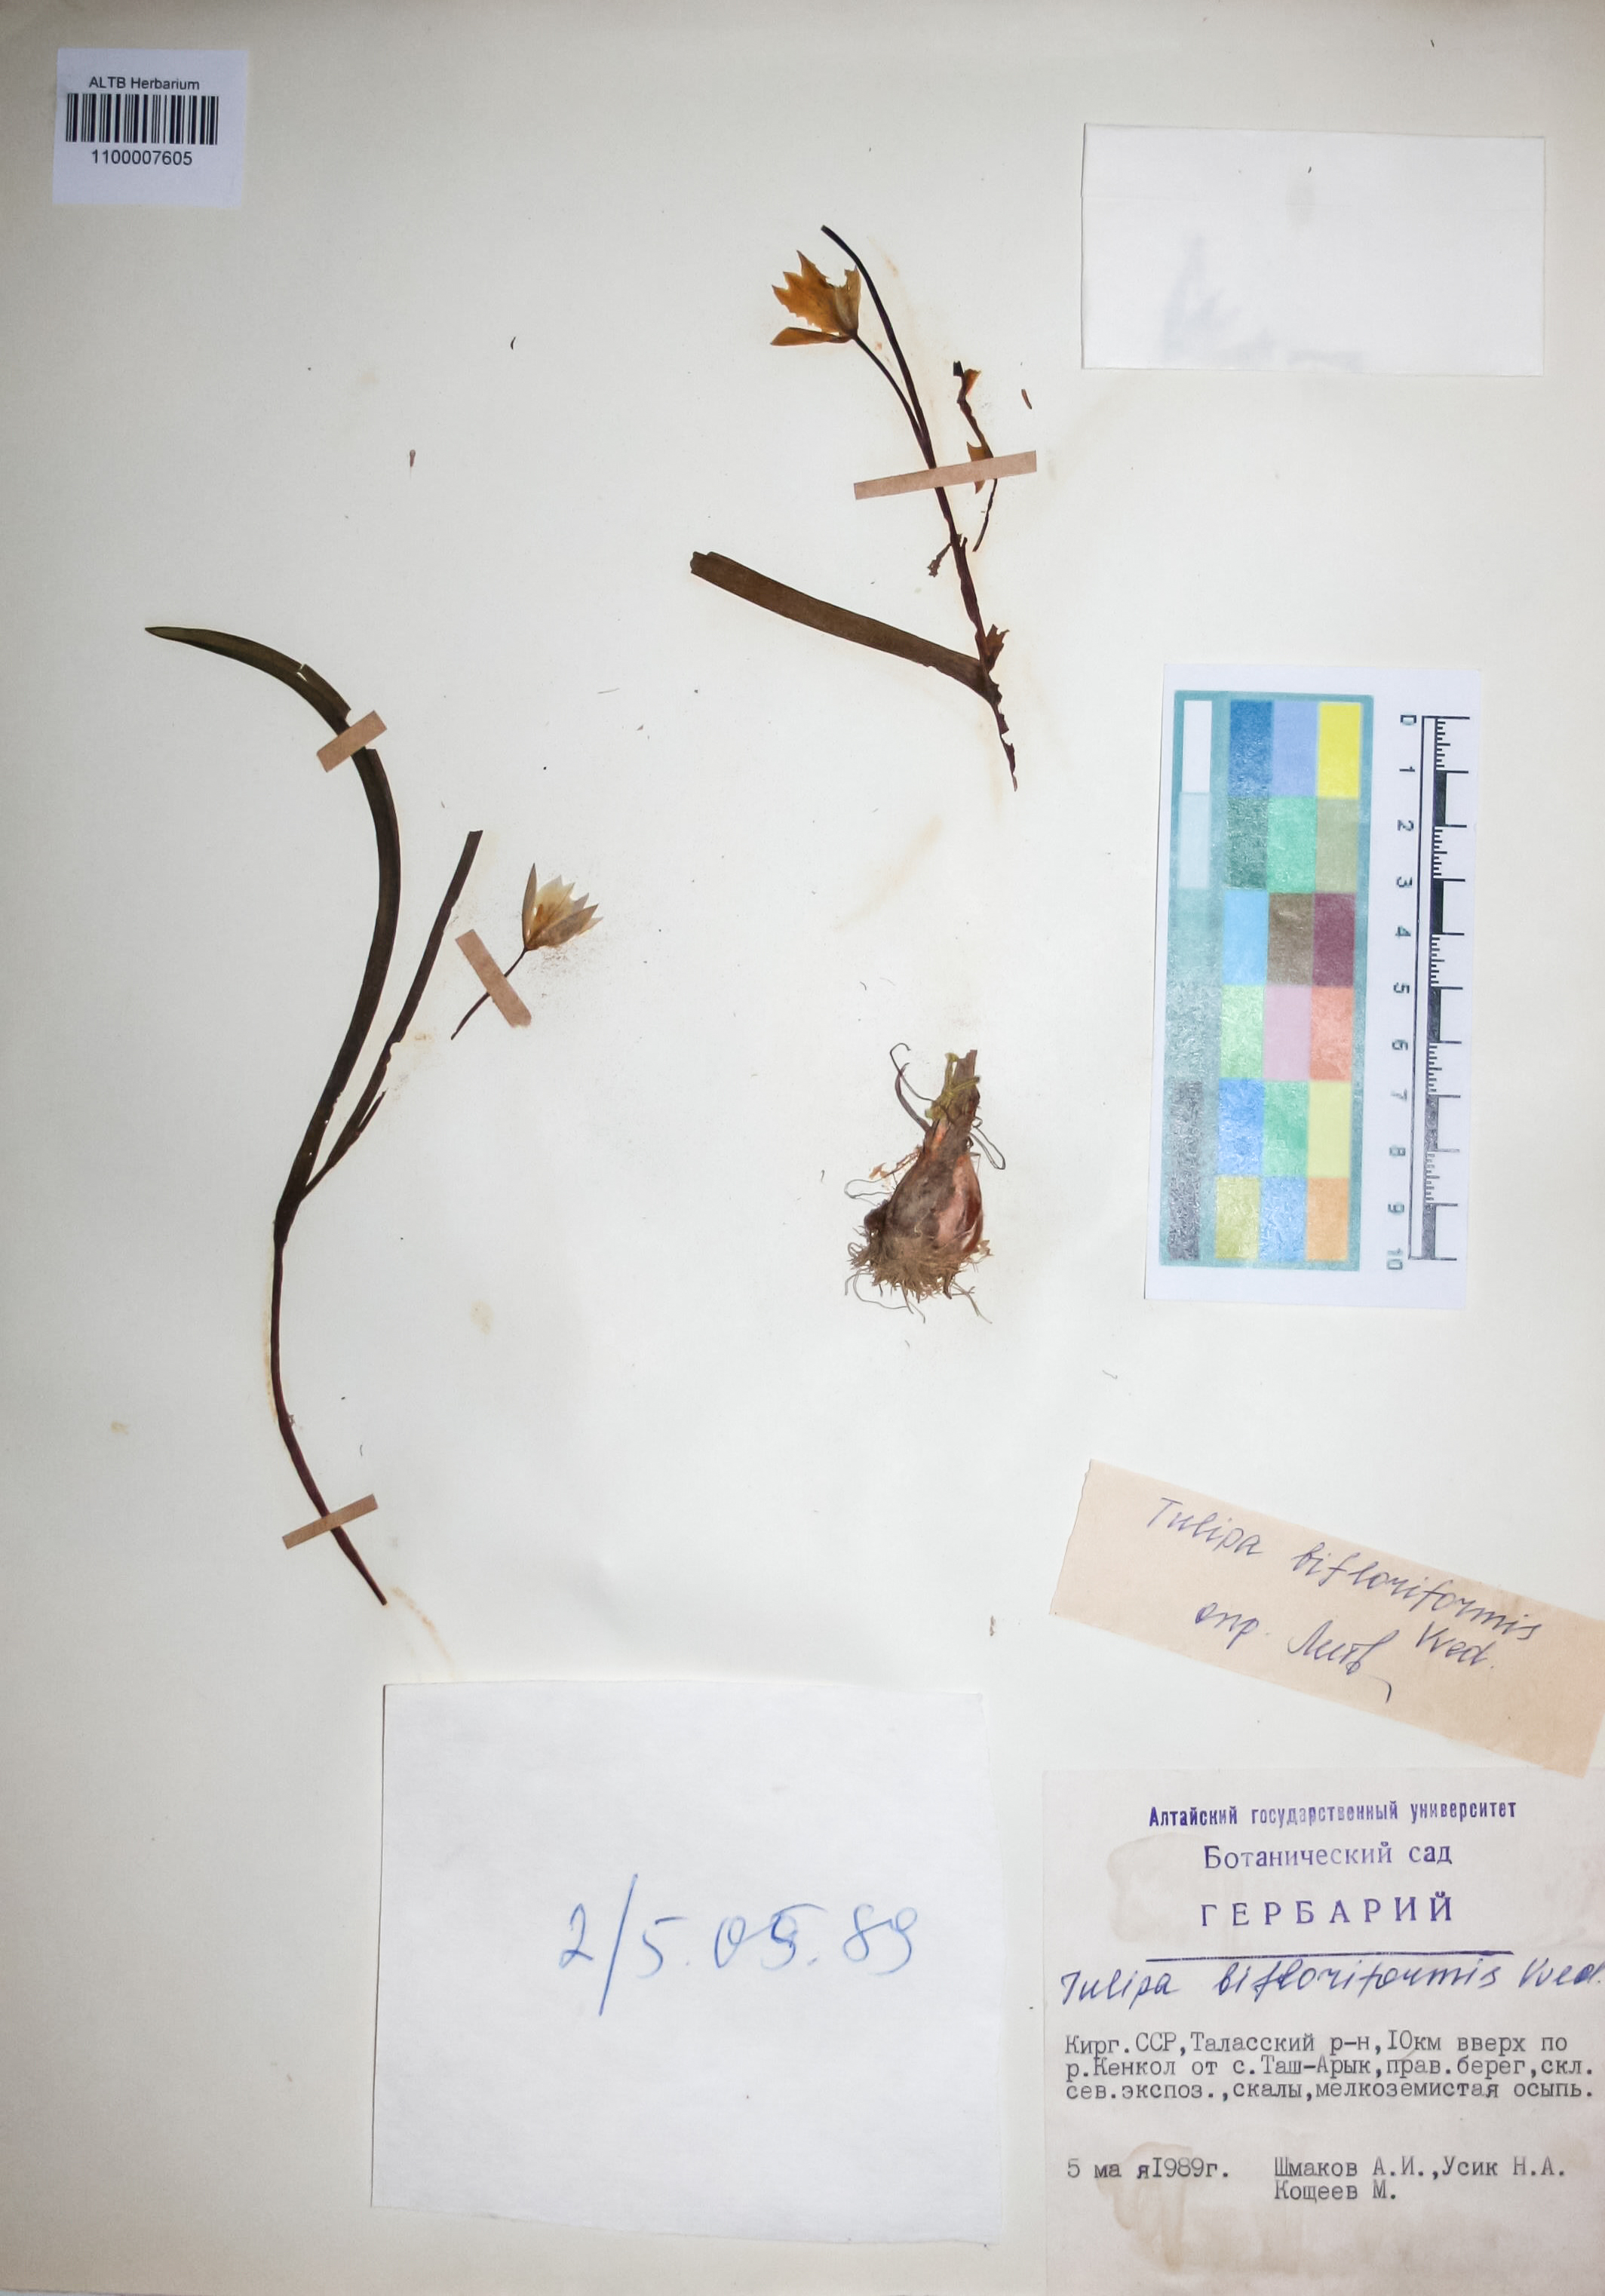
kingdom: Plantae
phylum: Tracheophyta
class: Liliopsida
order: Liliales
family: Liliaceae
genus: Tulipa
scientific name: Tulipa bifloriformis
